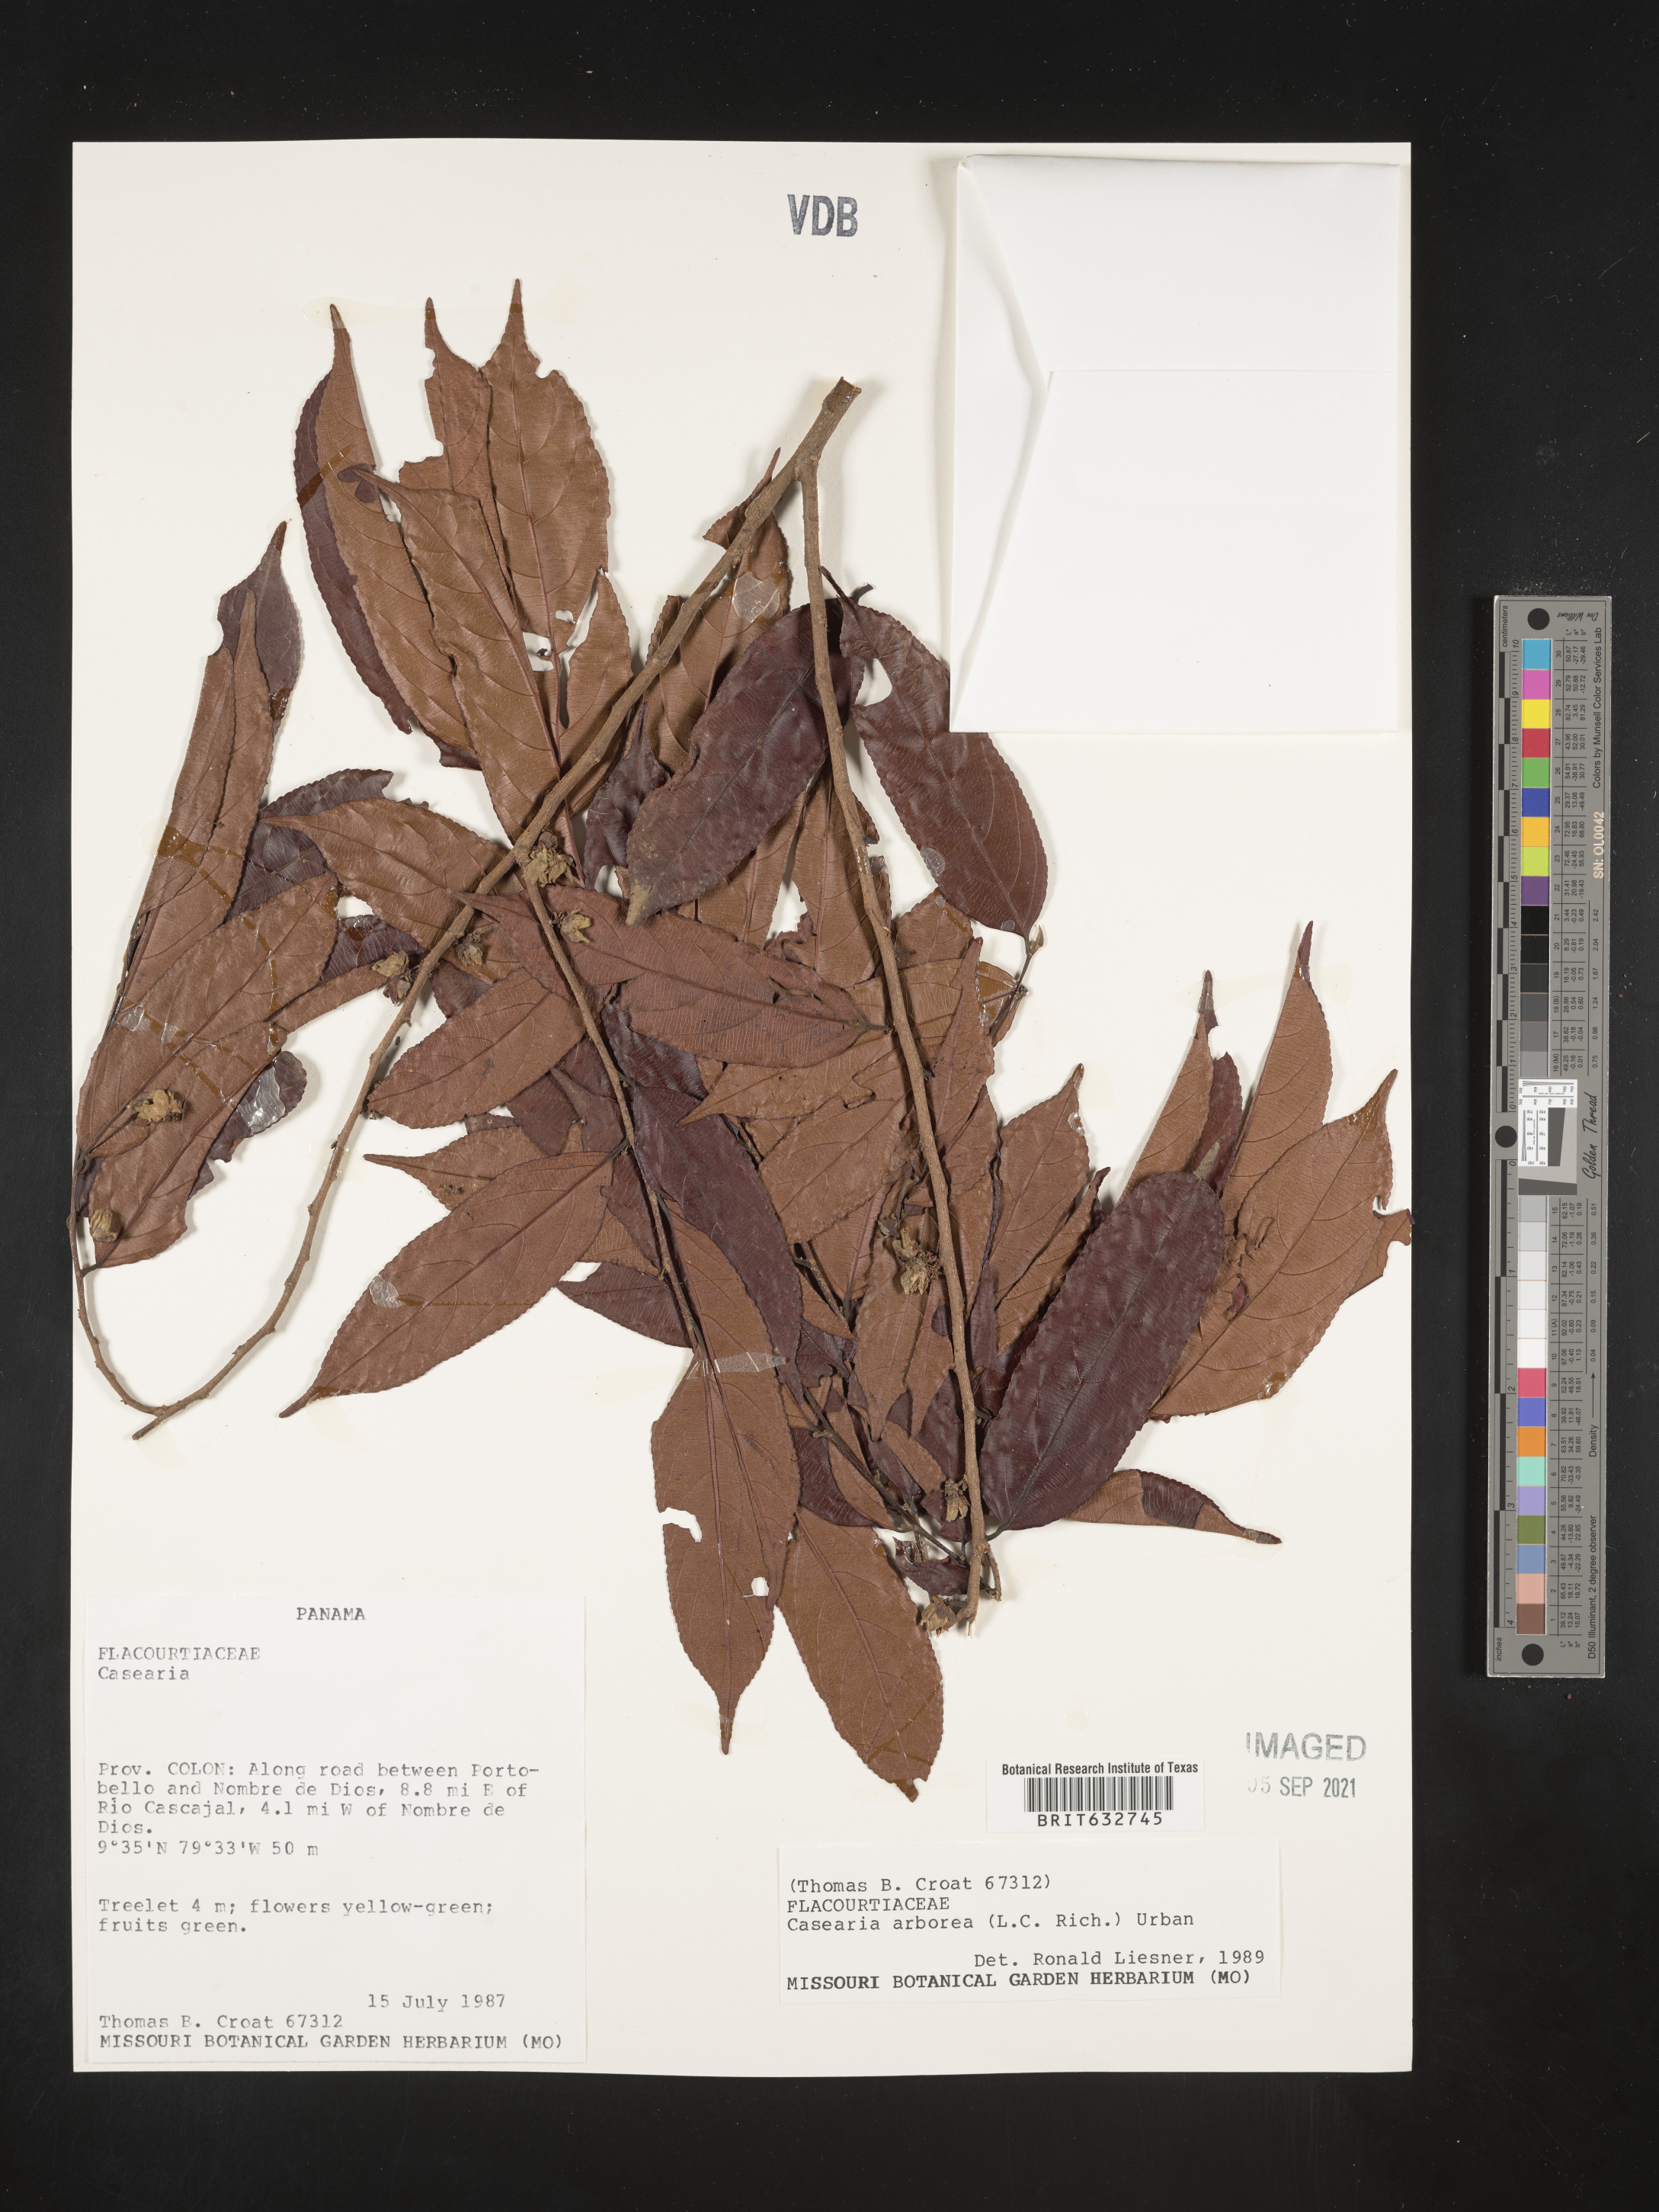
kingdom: Plantae
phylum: Tracheophyta
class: Magnoliopsida
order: Malpighiales
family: Salicaceae
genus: Casearia
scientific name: Casearia
